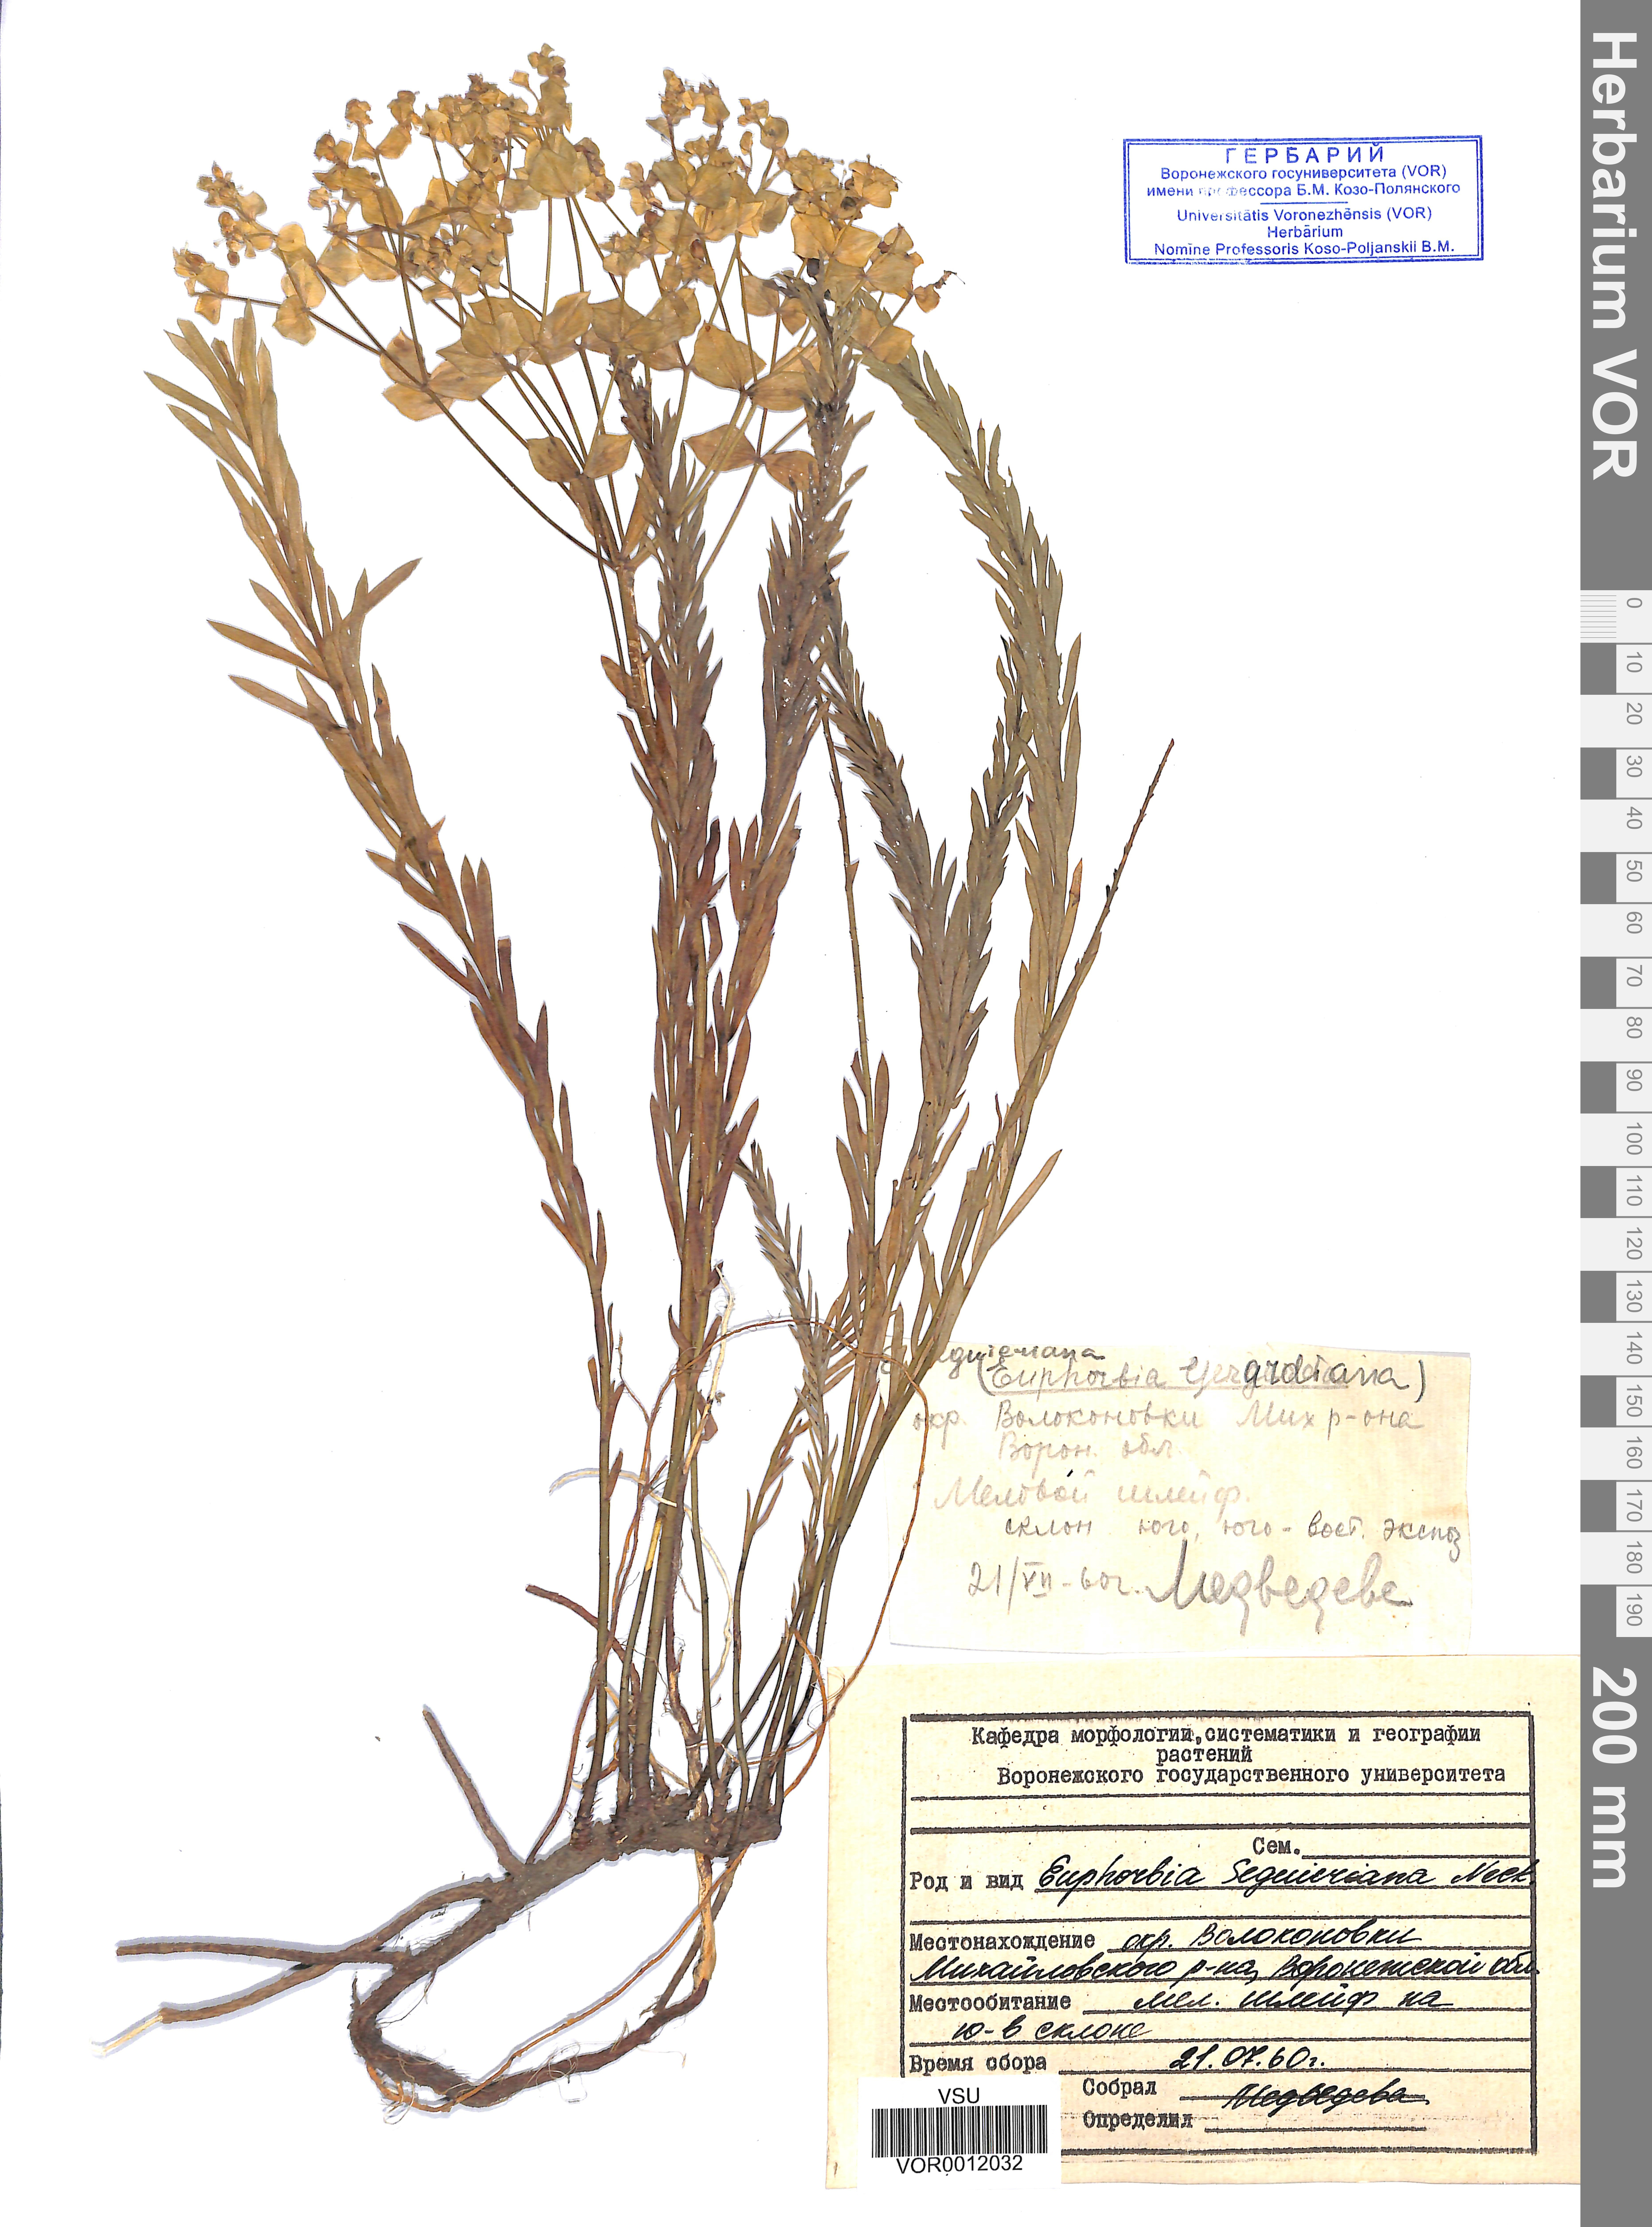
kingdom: Plantae
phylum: Tracheophyta
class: Magnoliopsida
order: Malpighiales
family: Euphorbiaceae
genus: Euphorbia
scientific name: Euphorbia seguieriana
